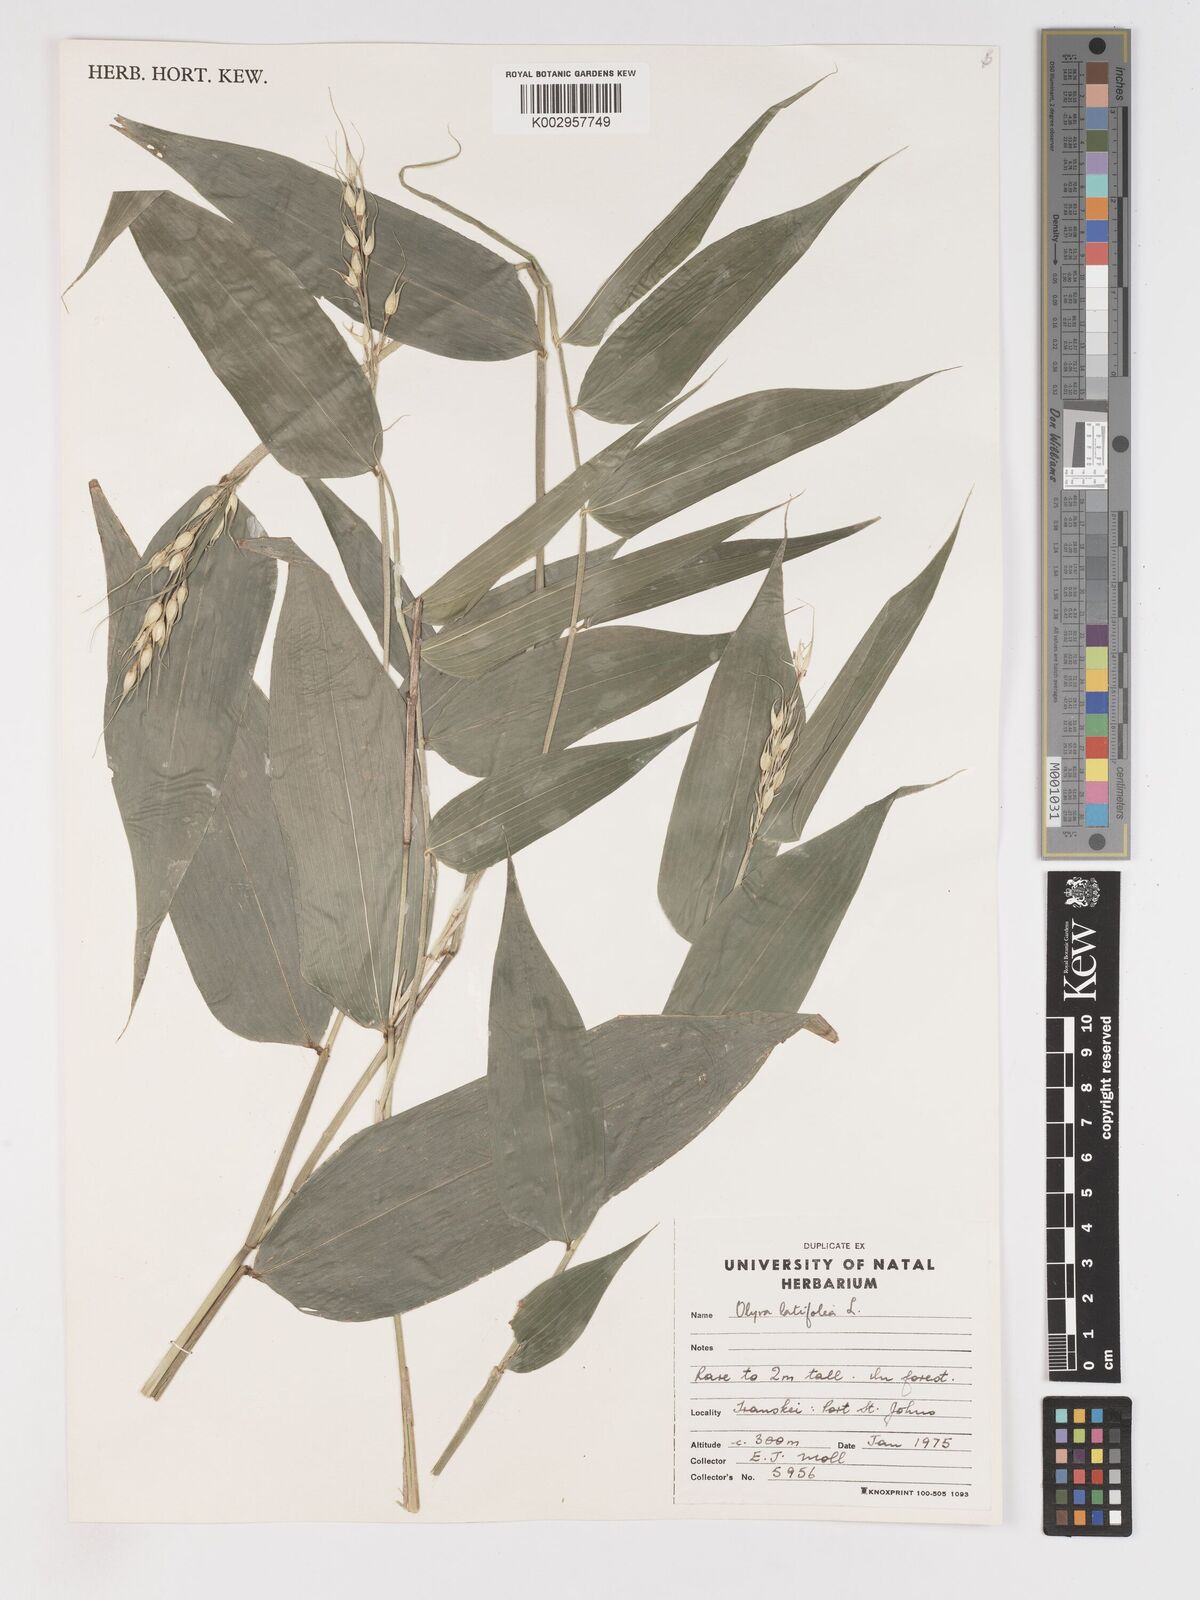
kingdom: Plantae
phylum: Tracheophyta
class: Liliopsida
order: Poales
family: Poaceae
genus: Olyra
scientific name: Olyra latifolia
